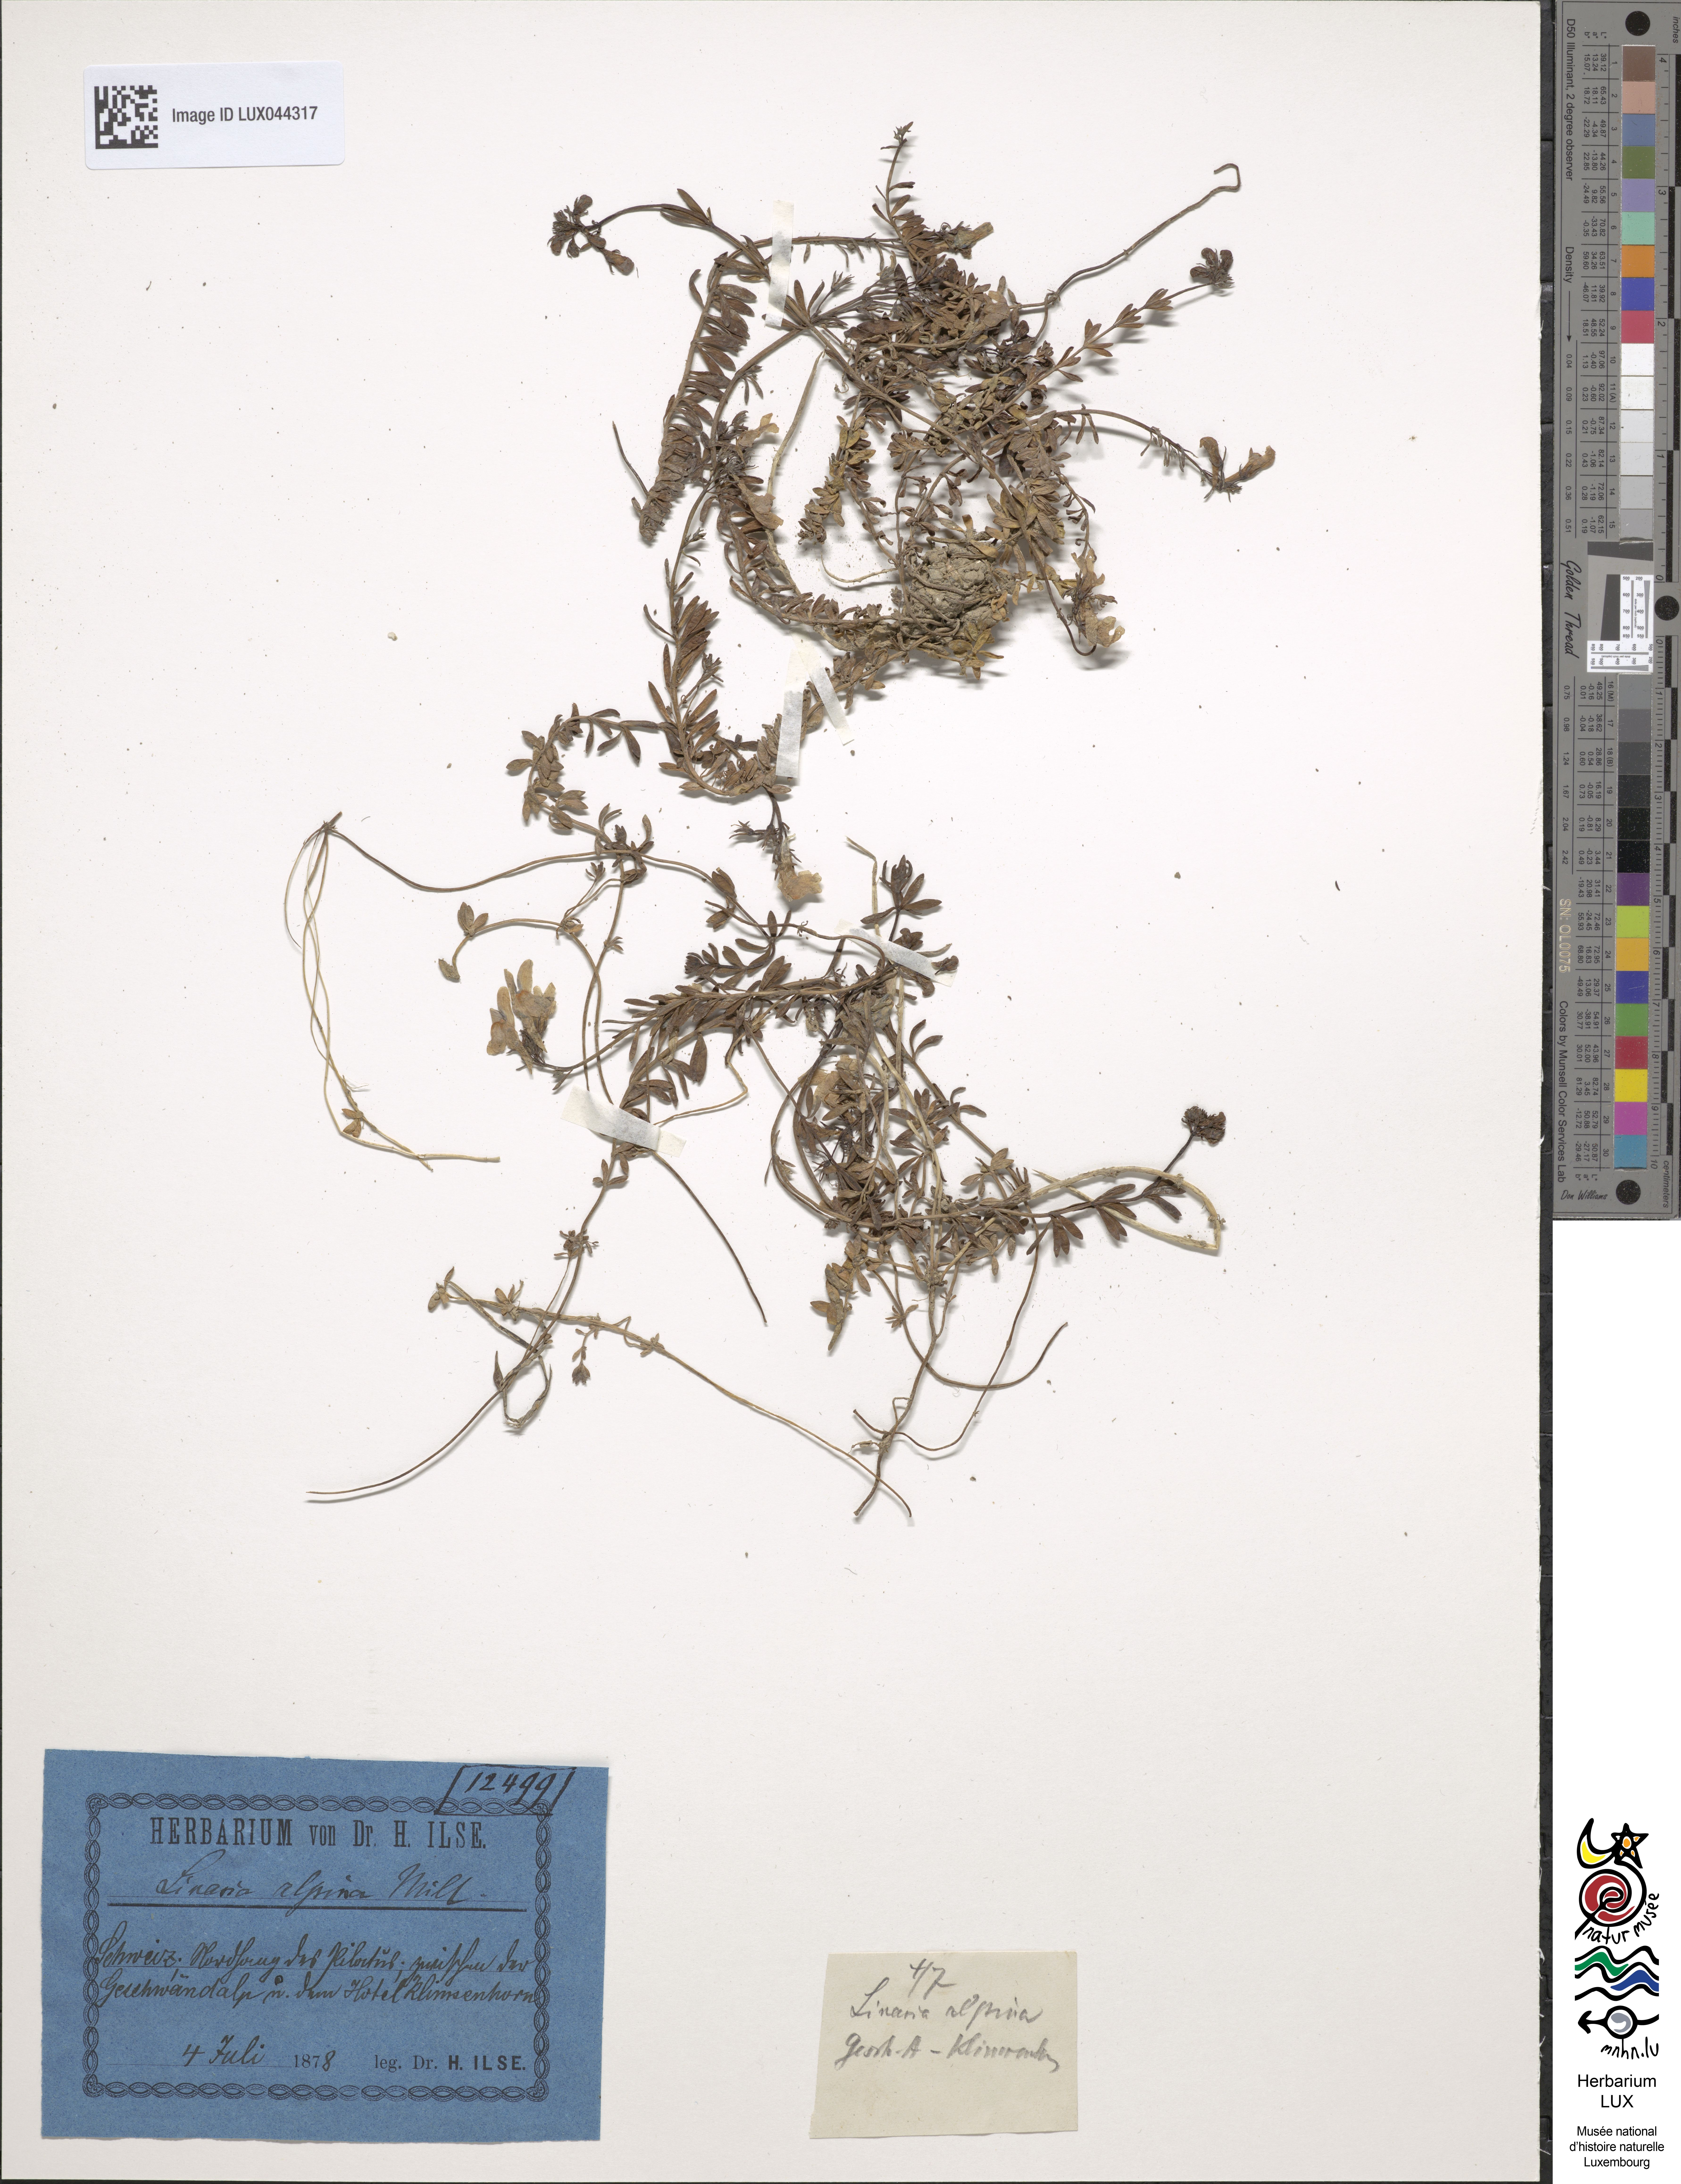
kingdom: Plantae
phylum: Tracheophyta
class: Magnoliopsida
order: Lamiales
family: Plantaginaceae
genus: Linaria
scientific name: Linaria alpina
